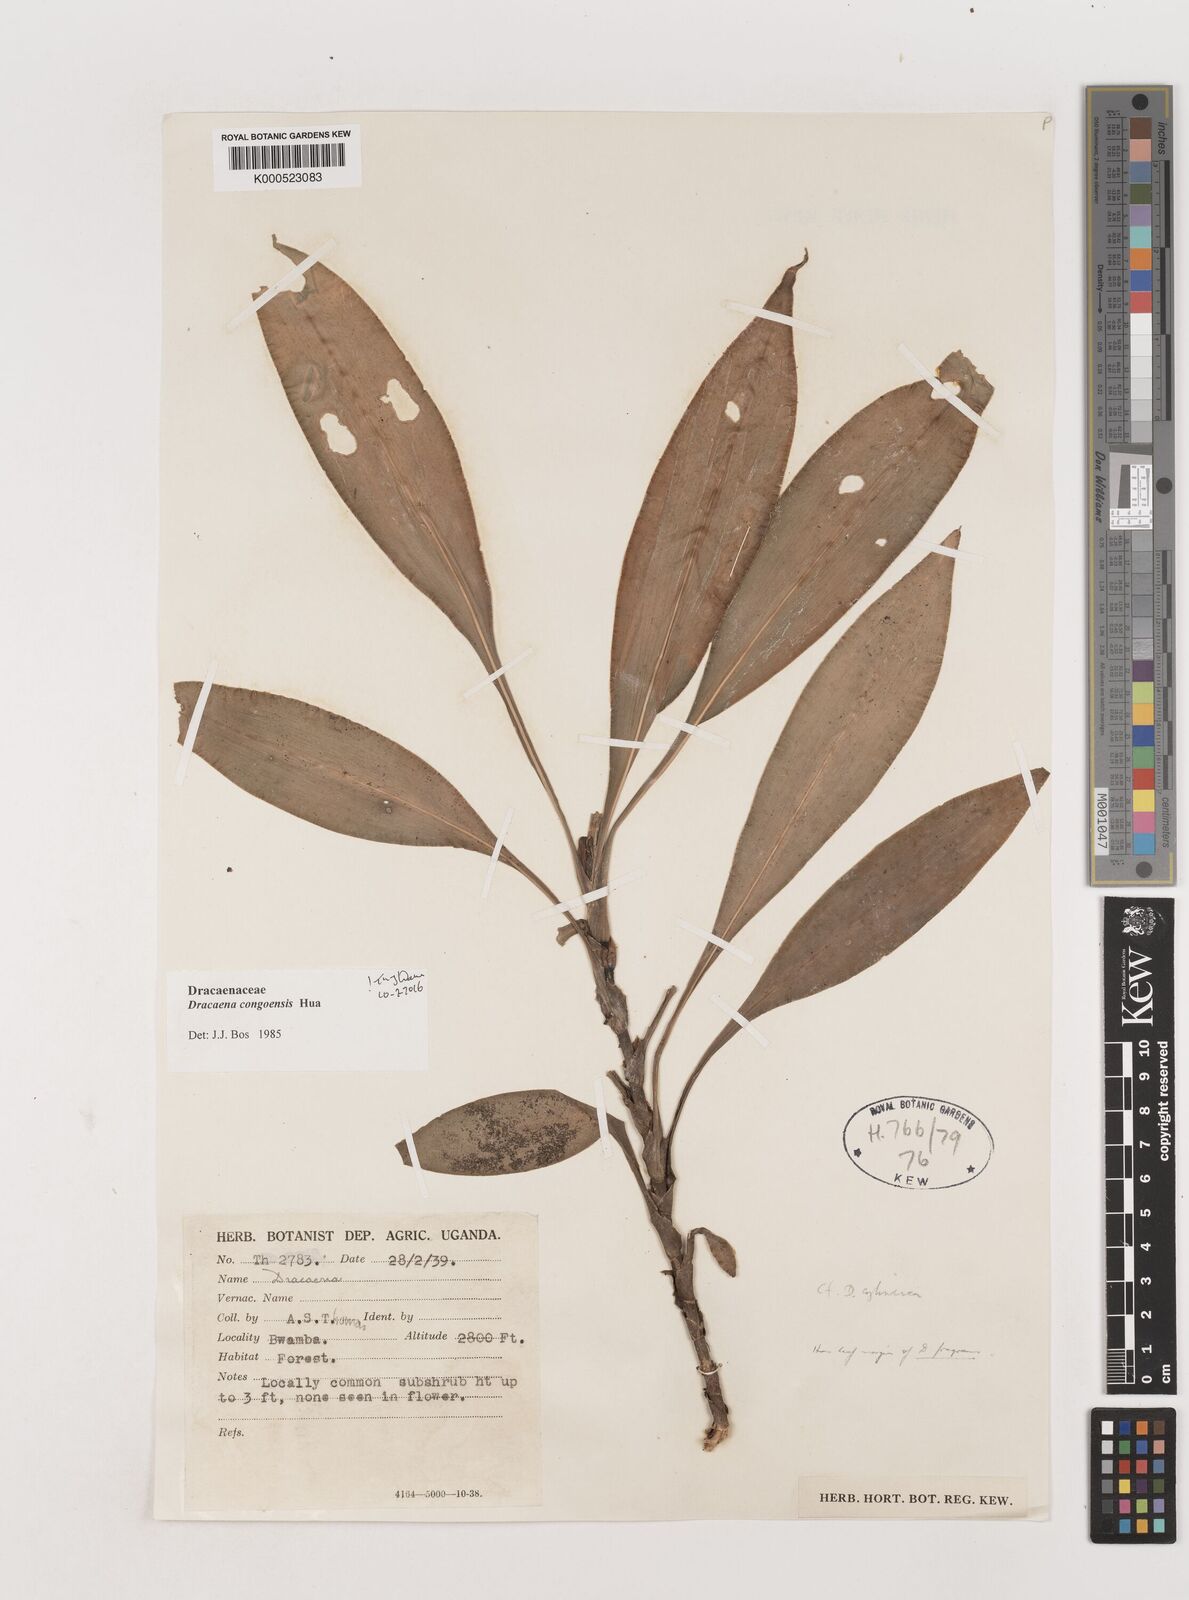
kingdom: Plantae
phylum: Tracheophyta
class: Liliopsida
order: Asparagales
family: Asparagaceae
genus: Dracaena
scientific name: Dracaena congoensis
